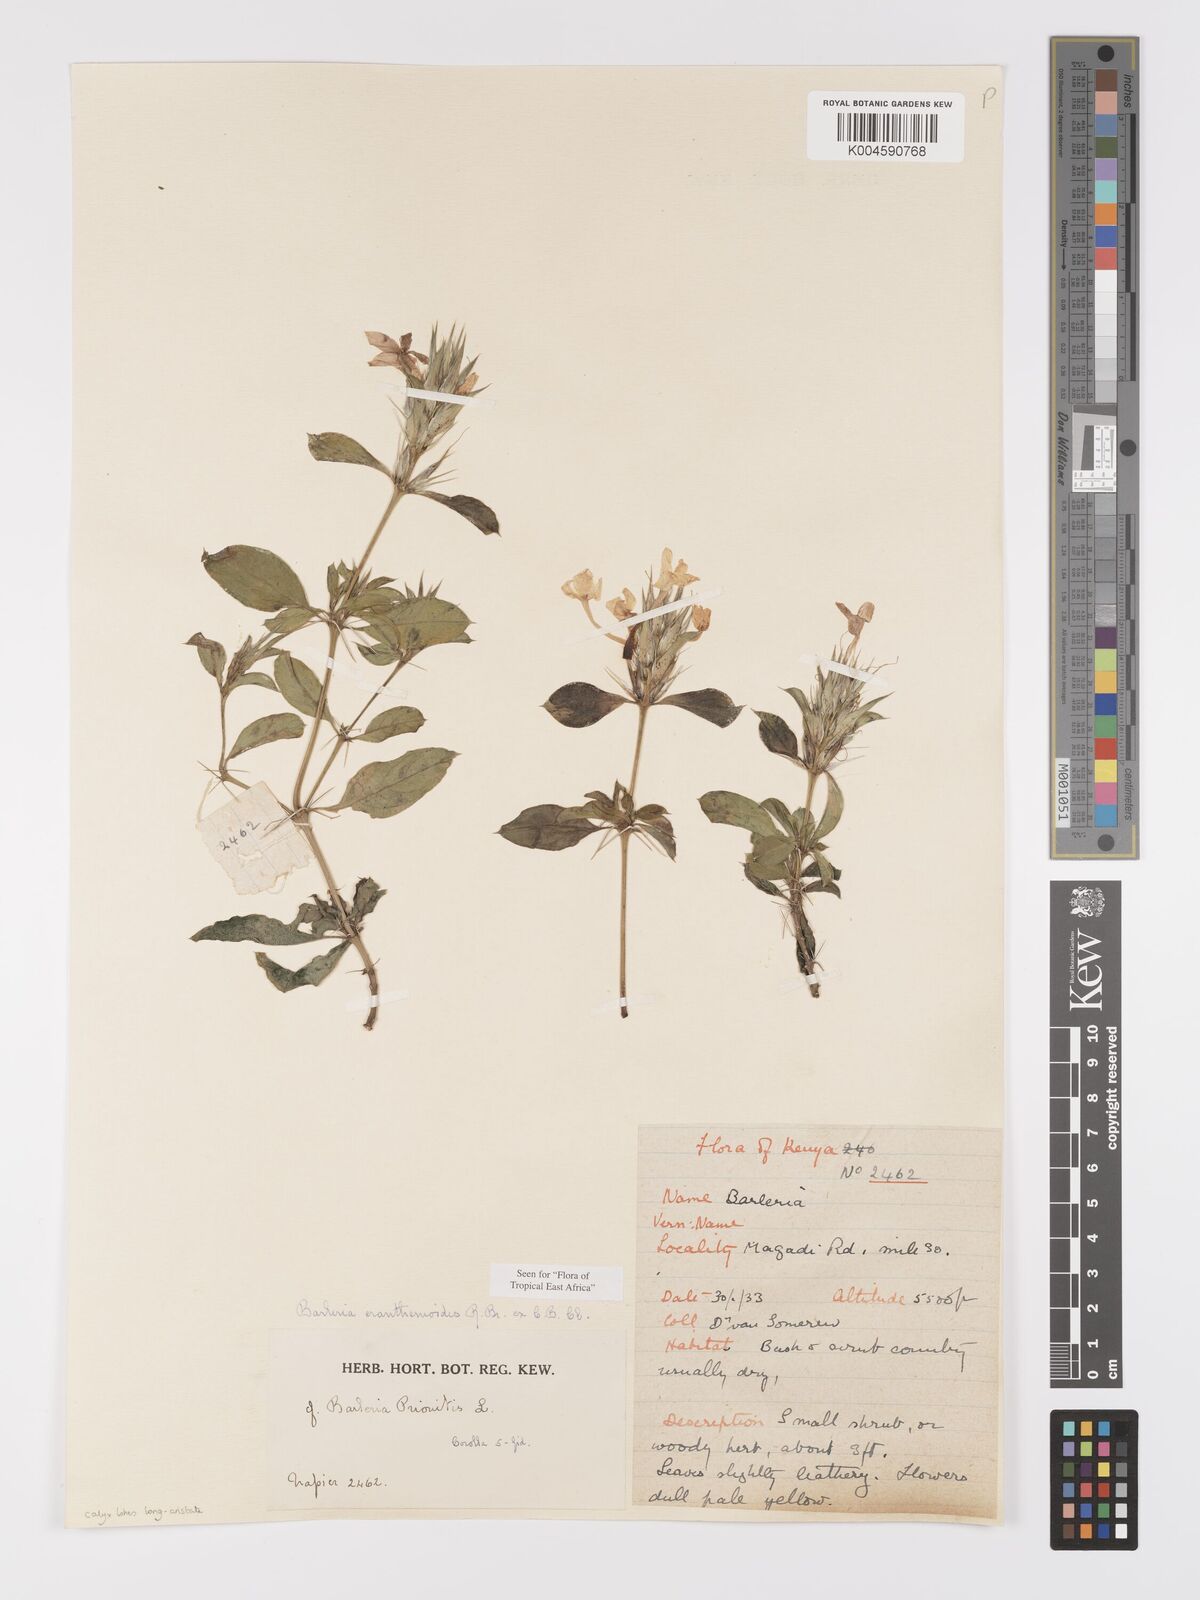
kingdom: Plantae
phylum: Tracheophyta
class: Magnoliopsida
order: Lamiales
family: Acanthaceae
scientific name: Acanthaceae
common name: Acanthaceae
